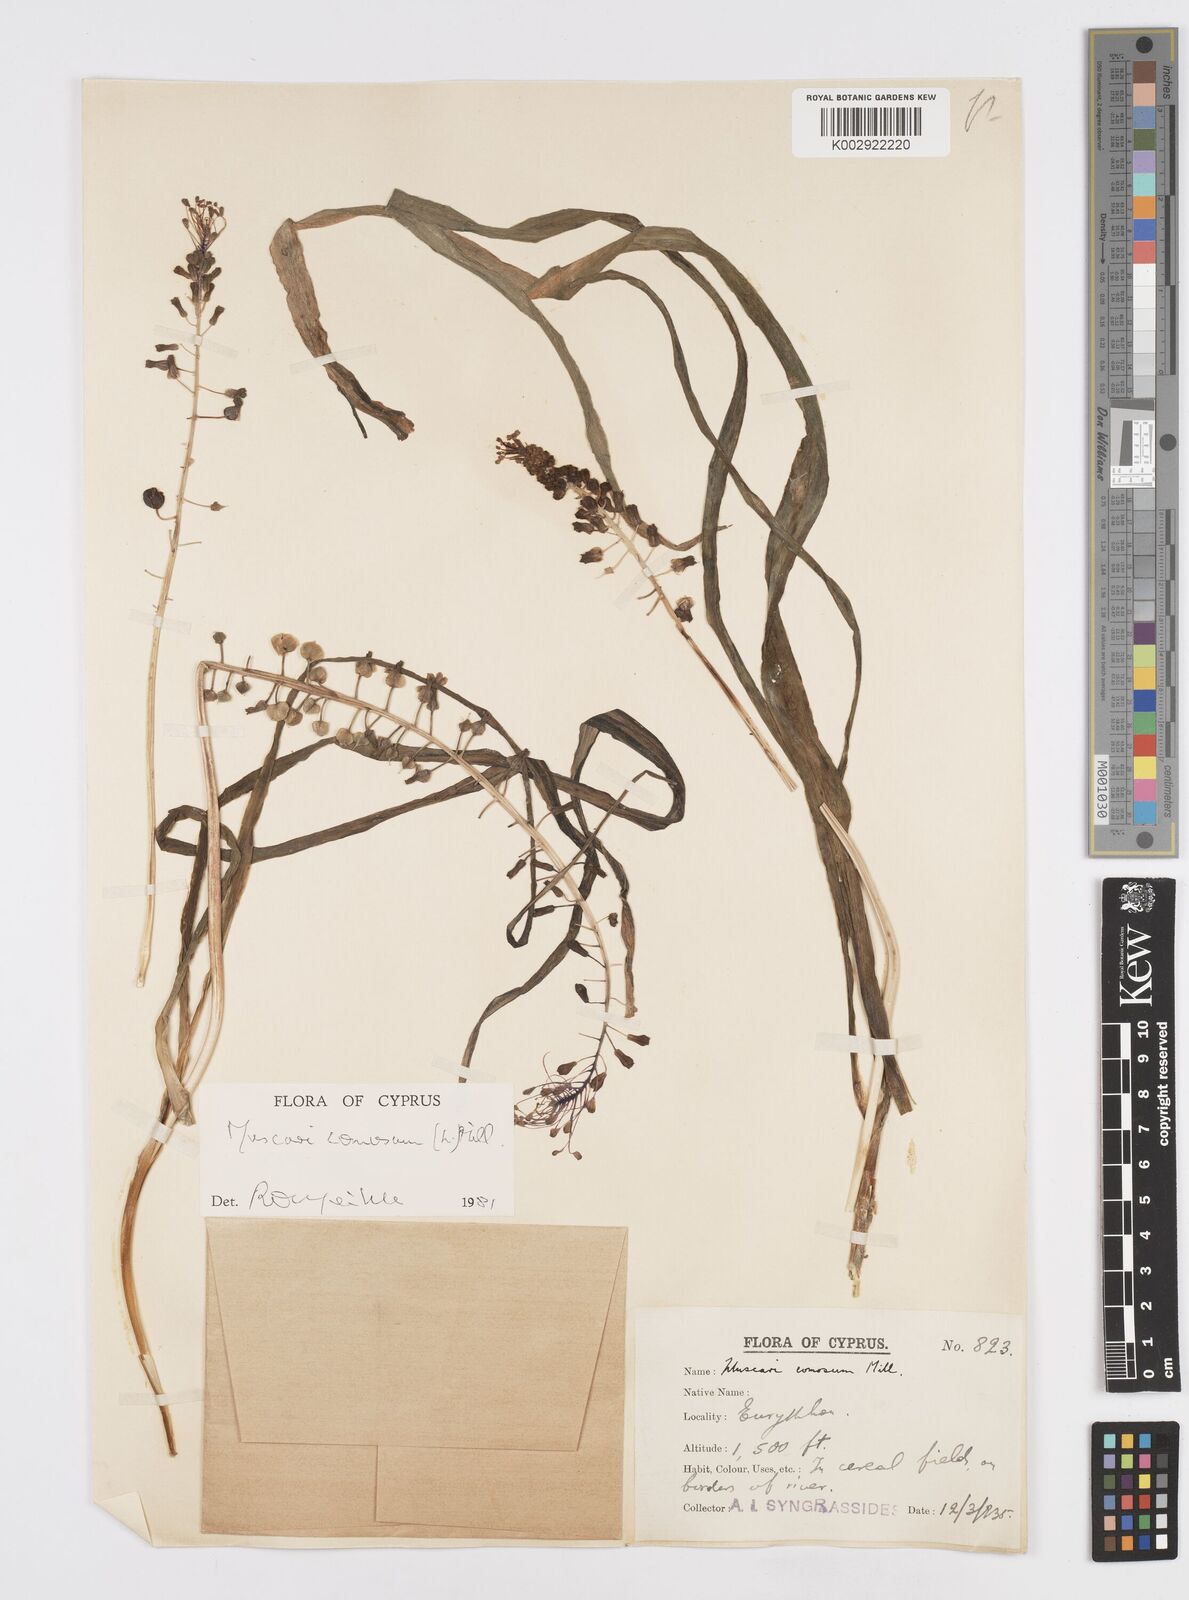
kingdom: Plantae
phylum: Tracheophyta
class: Liliopsida
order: Asparagales
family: Asparagaceae
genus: Muscari
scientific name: Muscari comosum
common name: Tassel hyacinth
